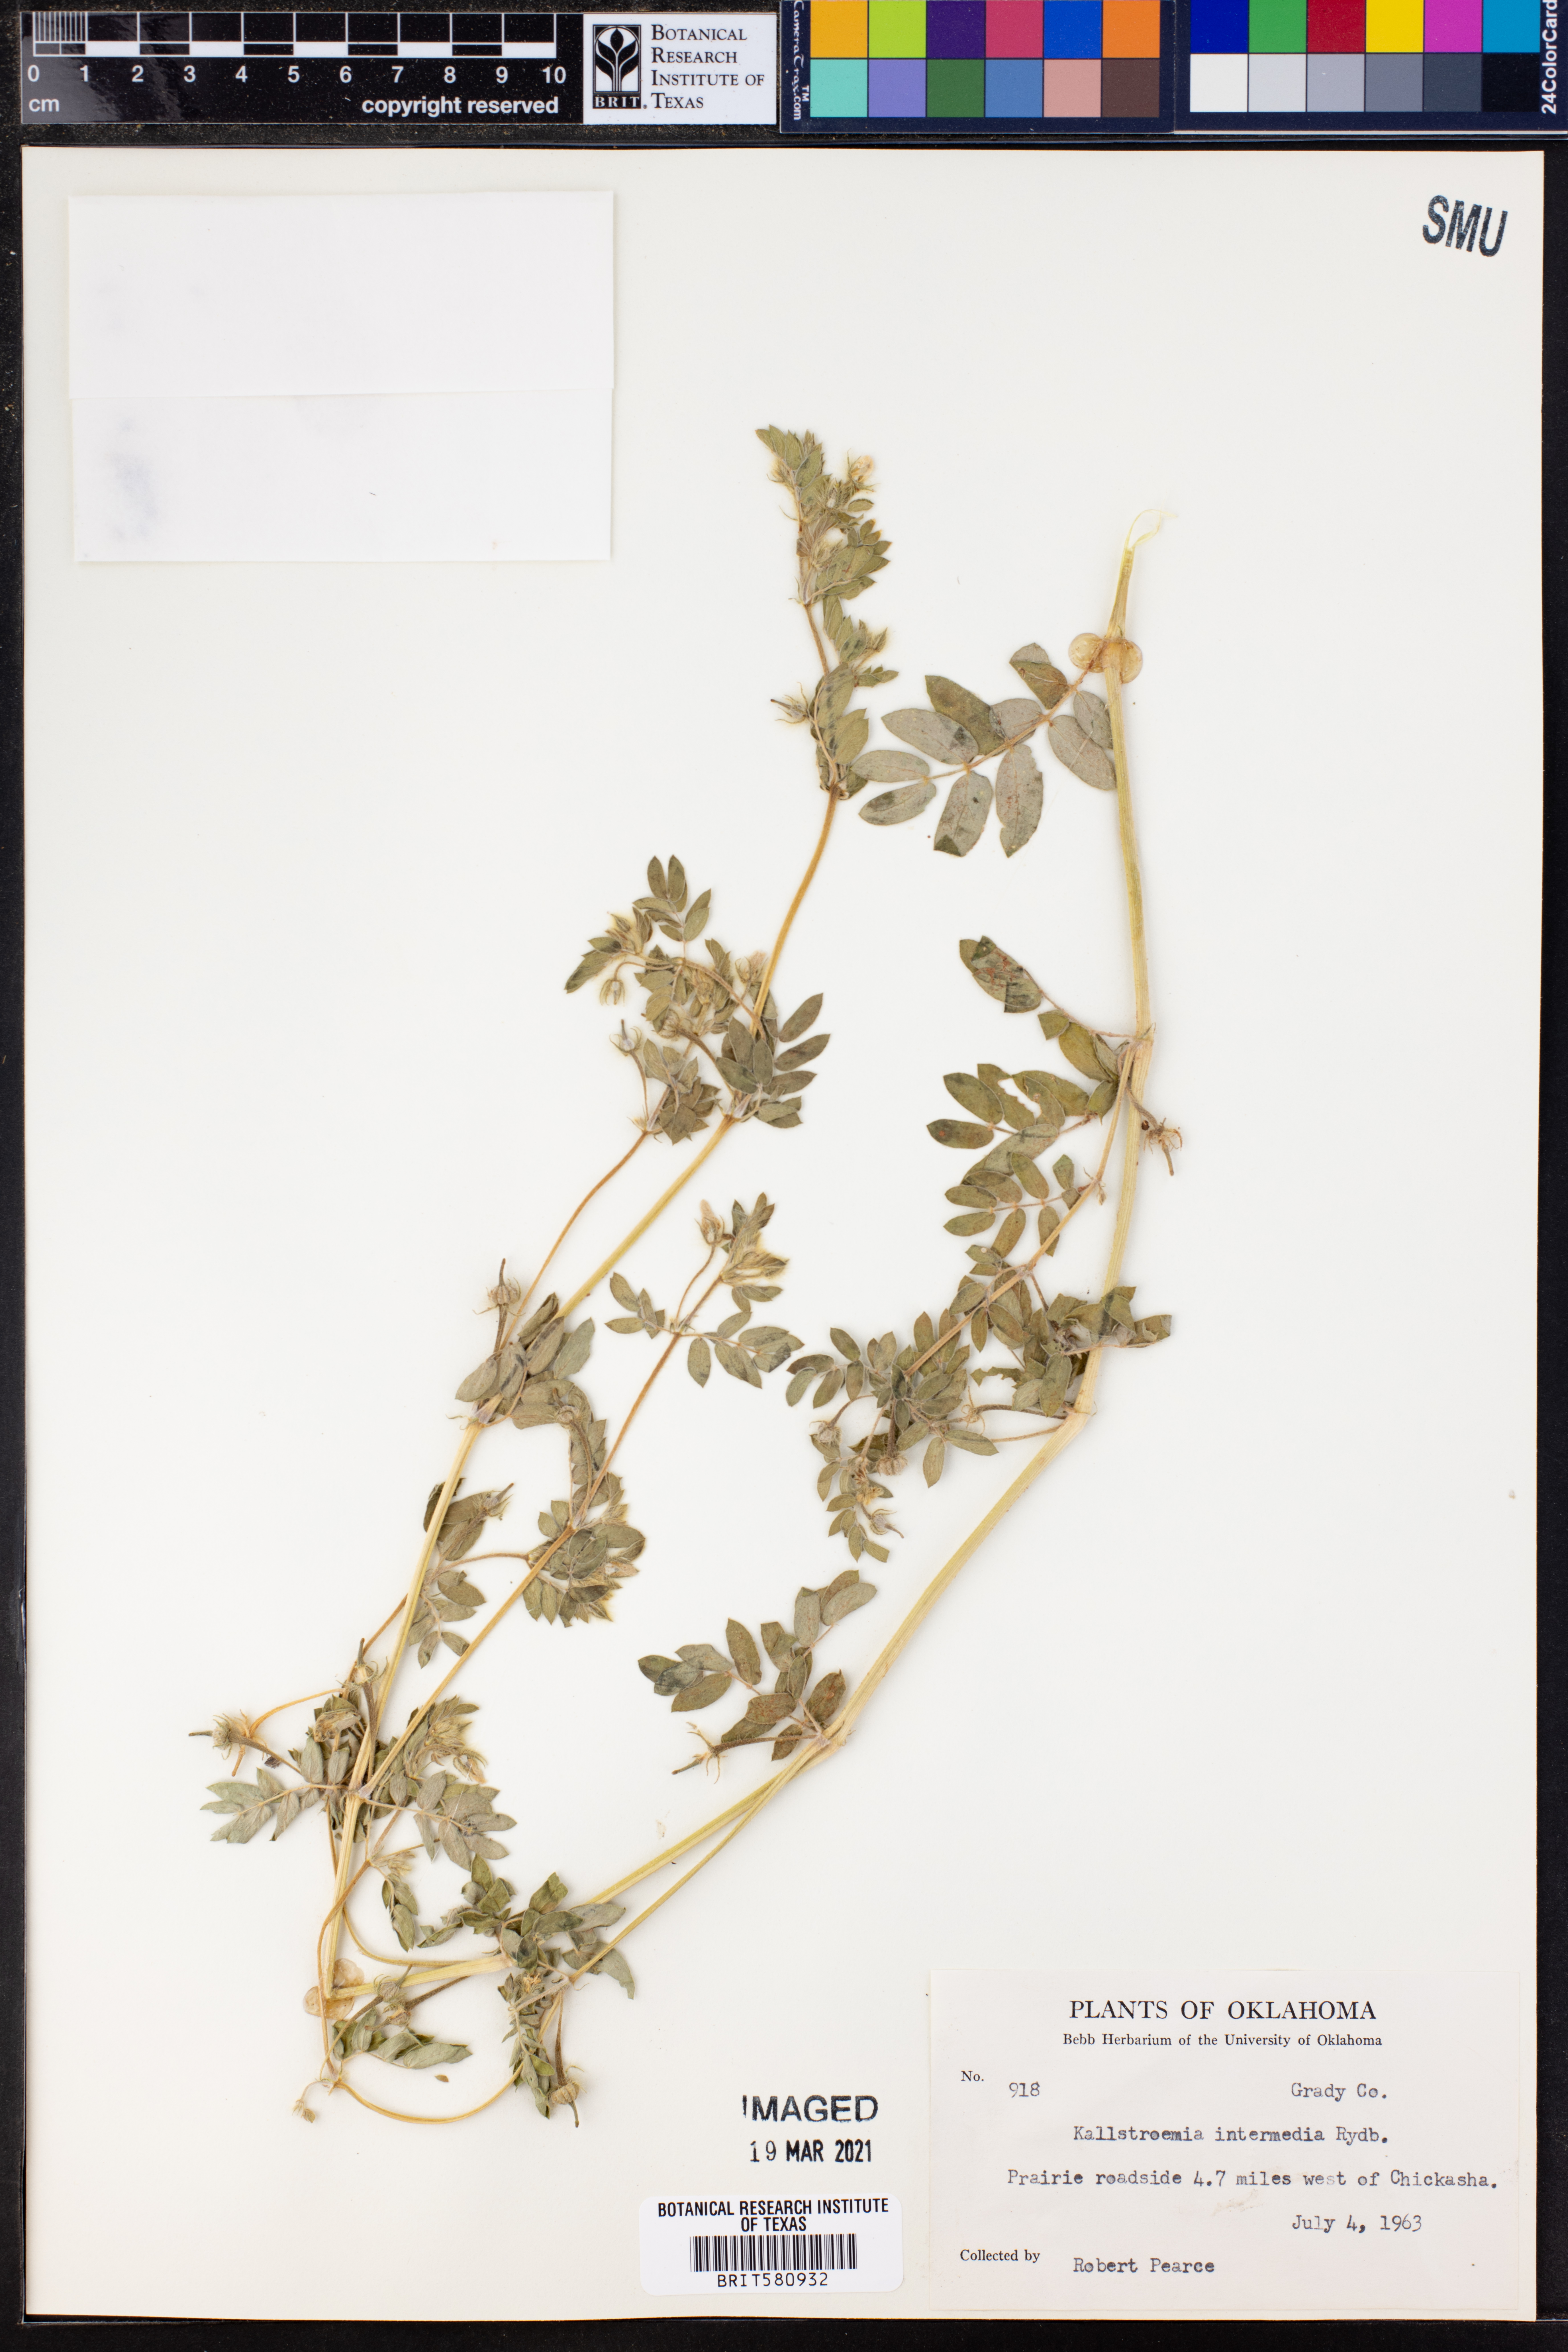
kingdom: Plantae
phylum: Tracheophyta
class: Magnoliopsida
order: Zygophyllales
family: Zygophyllaceae
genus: Kallstroemia
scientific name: Kallstroemia parviflora
